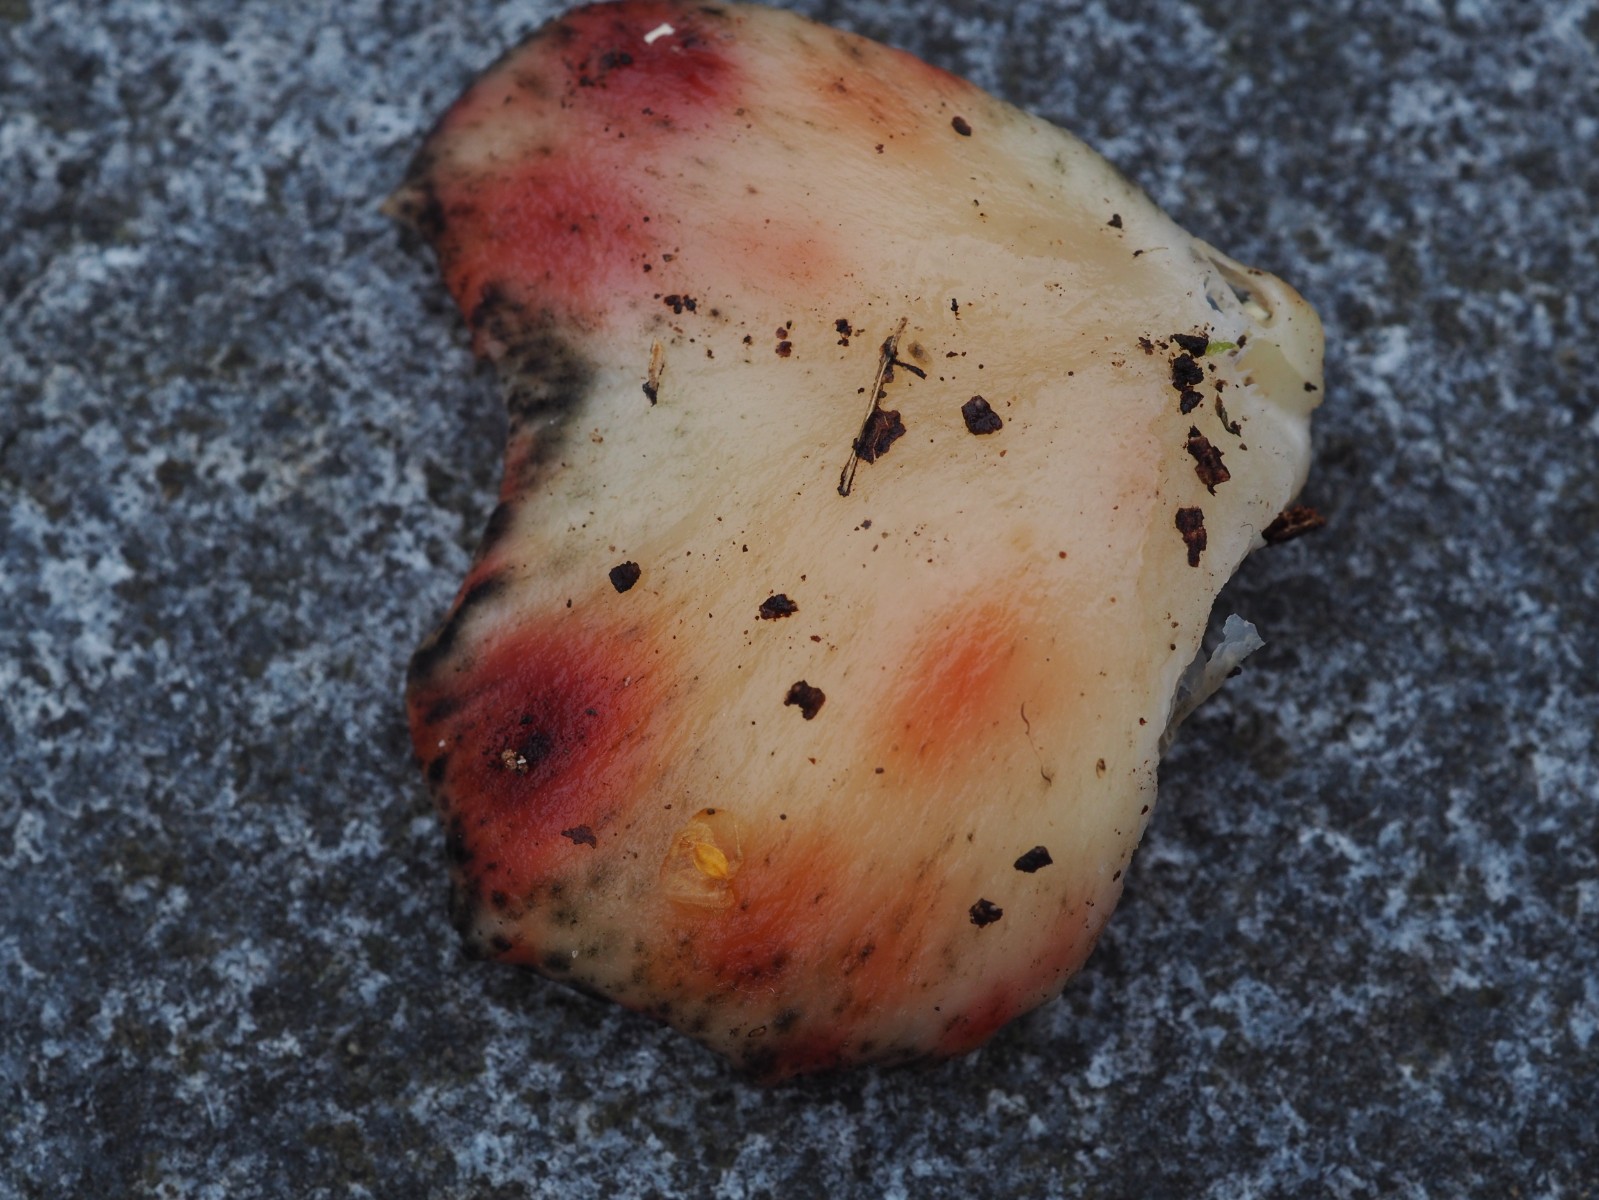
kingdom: Fungi
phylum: Basidiomycota
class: Agaricomycetes
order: Agaricales
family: Pleurotaceae
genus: Pleurotus
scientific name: Pleurotus pulmonarius
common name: sommer-østershat
